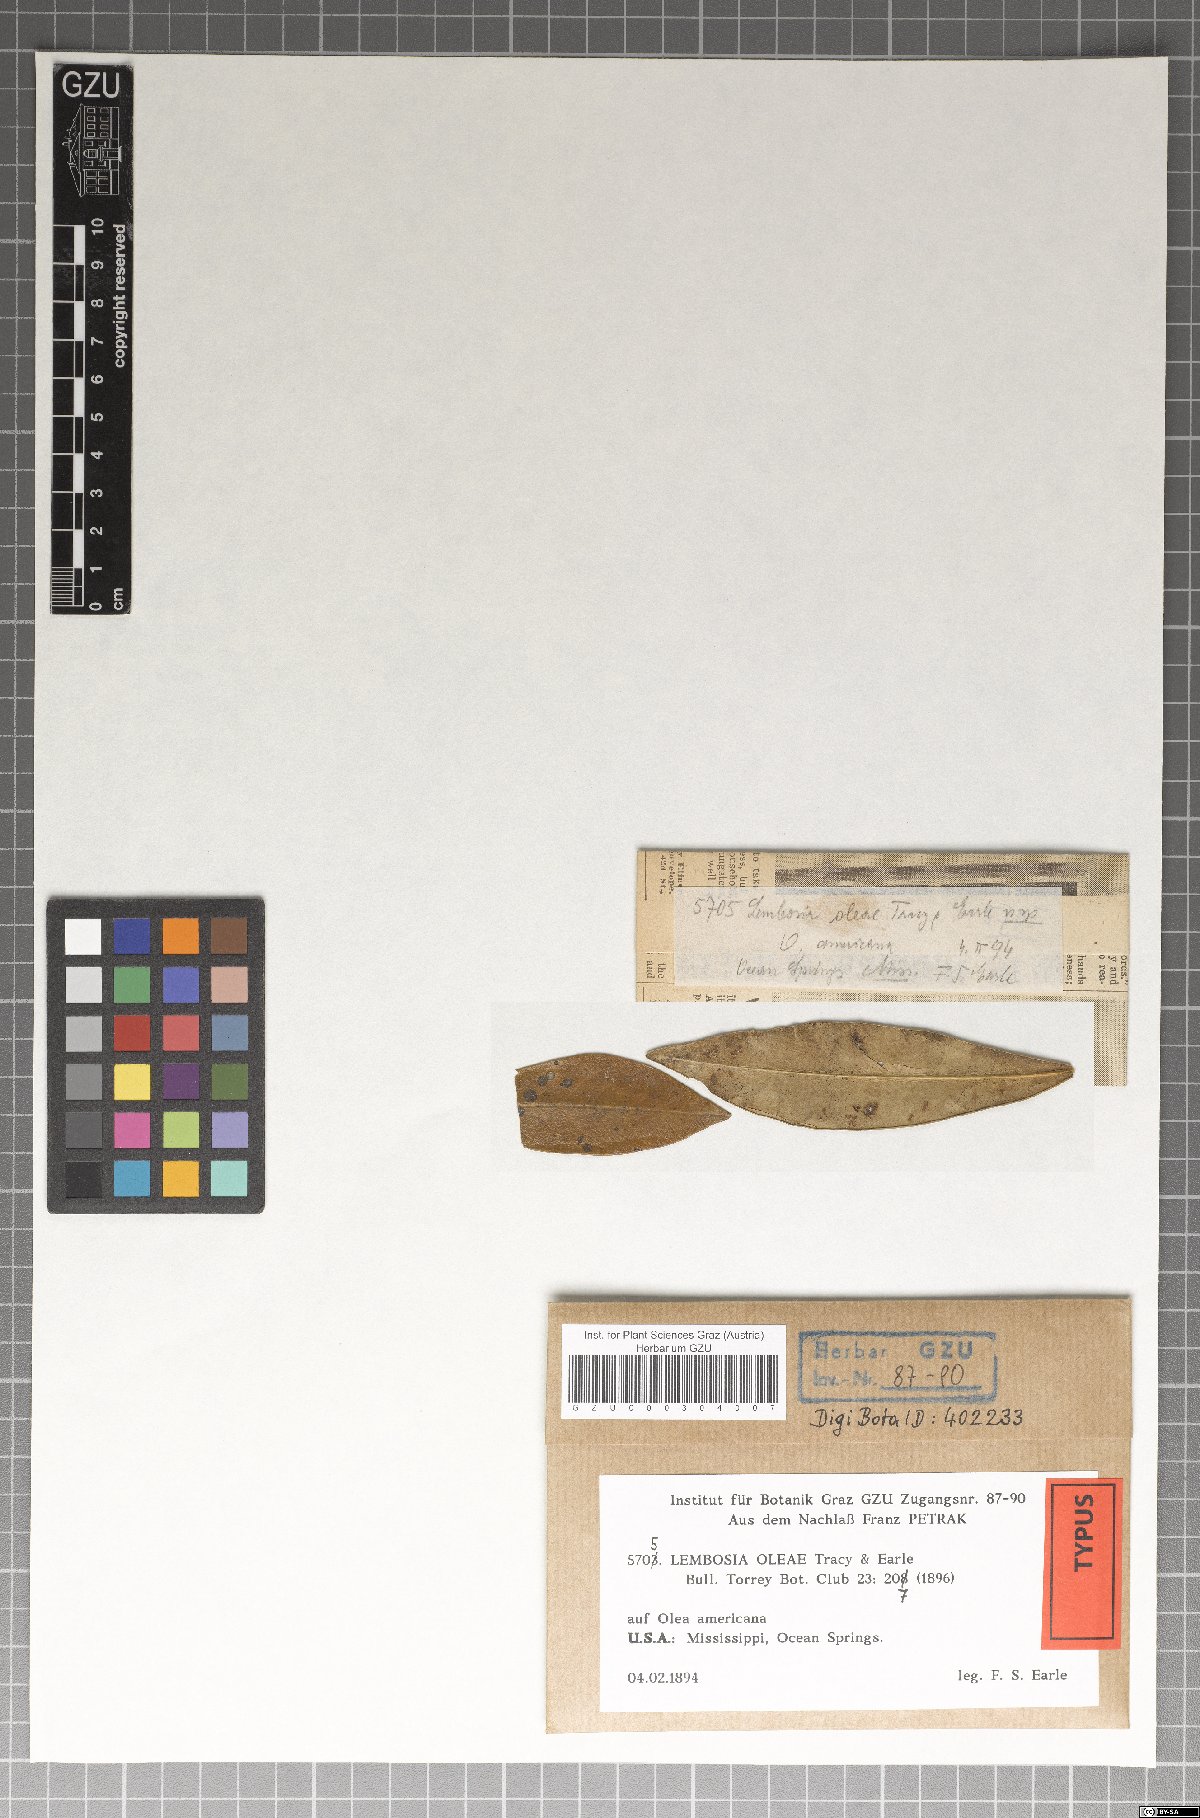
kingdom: Fungi
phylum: Ascomycota
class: Dothideomycetes
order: Asterinales
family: Asterinaceae
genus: Lembosia
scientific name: Lembosia
